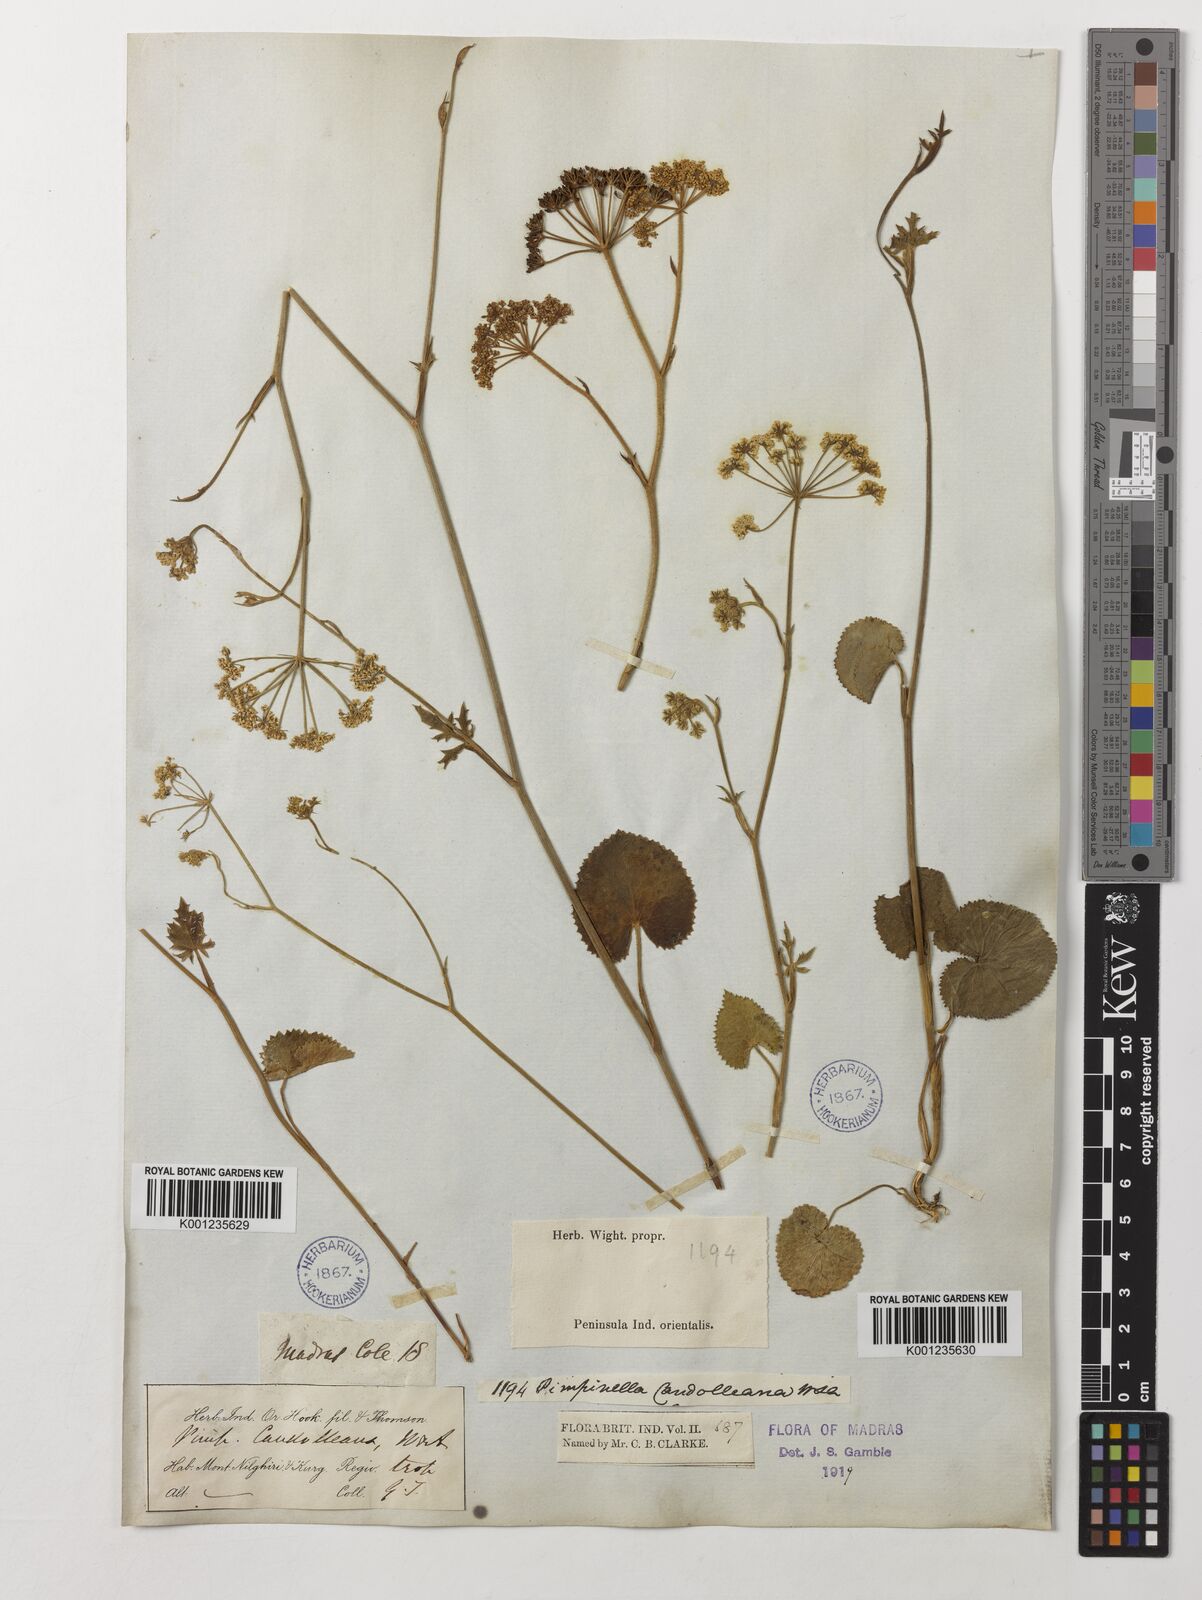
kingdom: Plantae
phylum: Tracheophyta
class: Magnoliopsida
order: Apiales
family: Apiaceae
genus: Pimpinella
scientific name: Pimpinella candolleana
